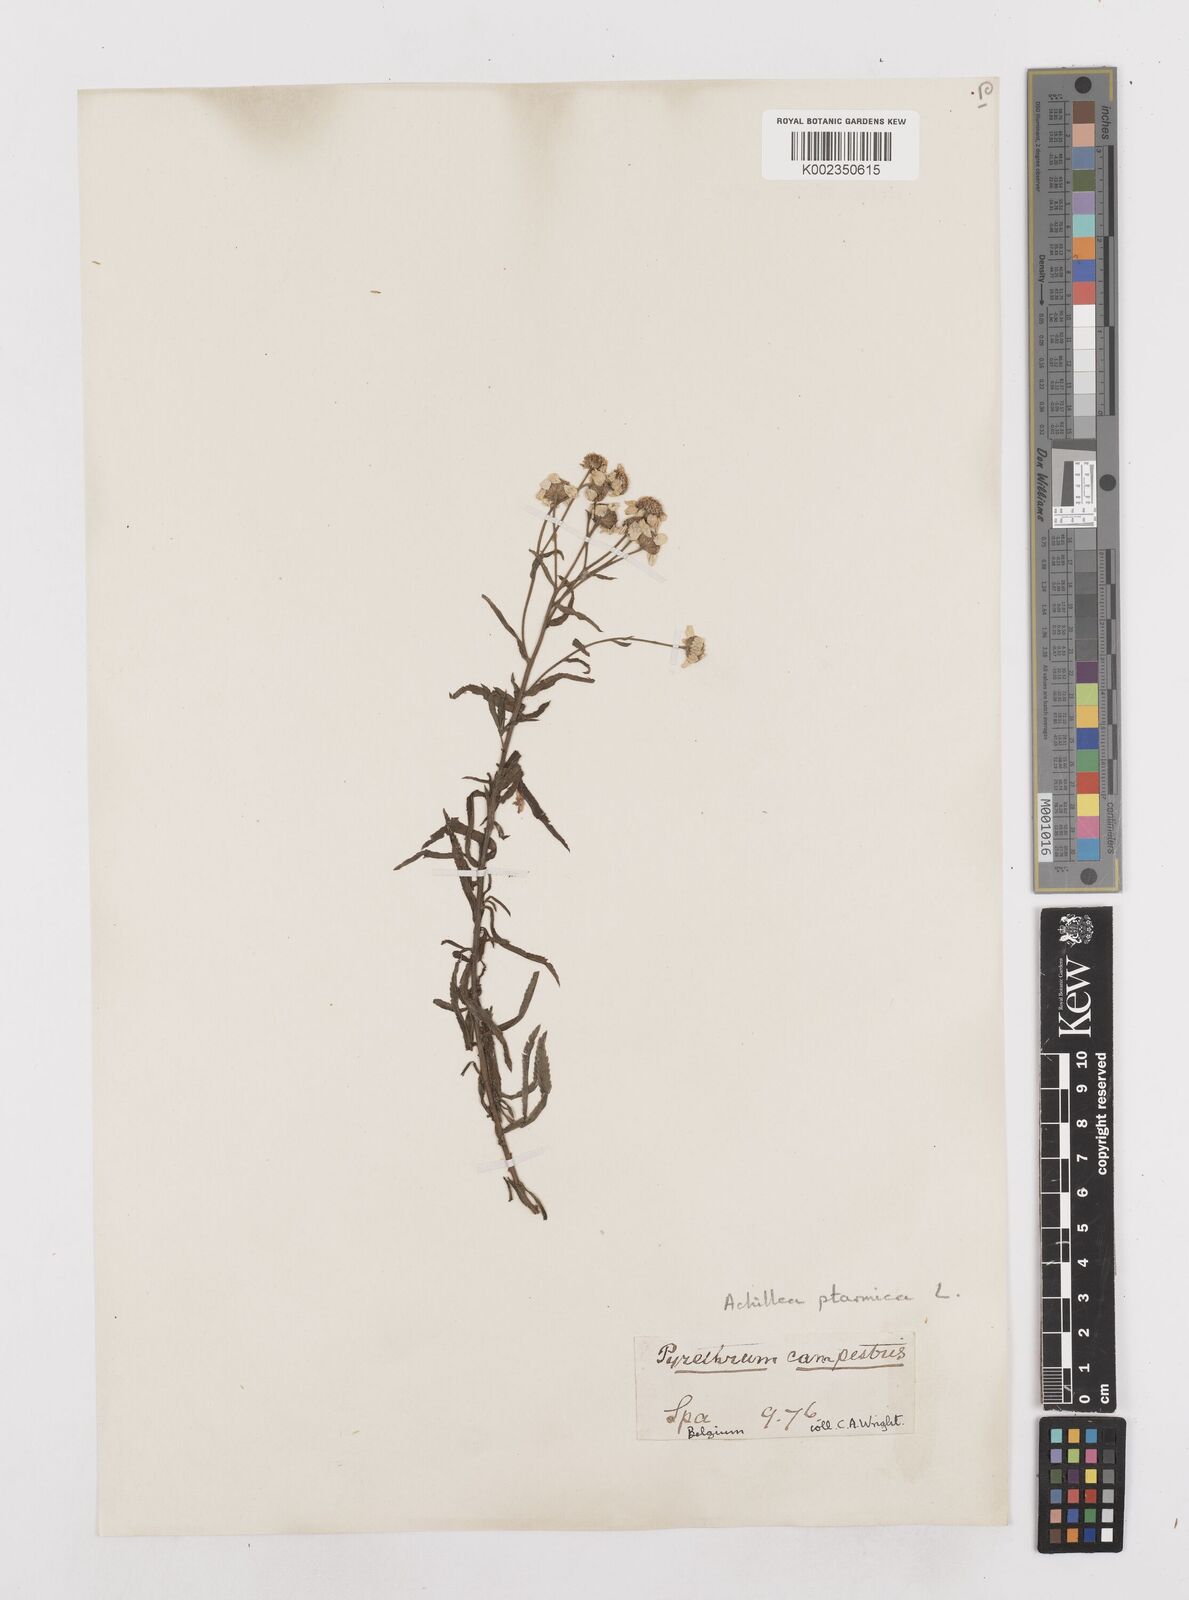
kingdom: Plantae
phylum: Tracheophyta
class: Magnoliopsida
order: Asterales
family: Asteraceae
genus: Achillea
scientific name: Achillea ptarmica
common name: Sneezeweed
